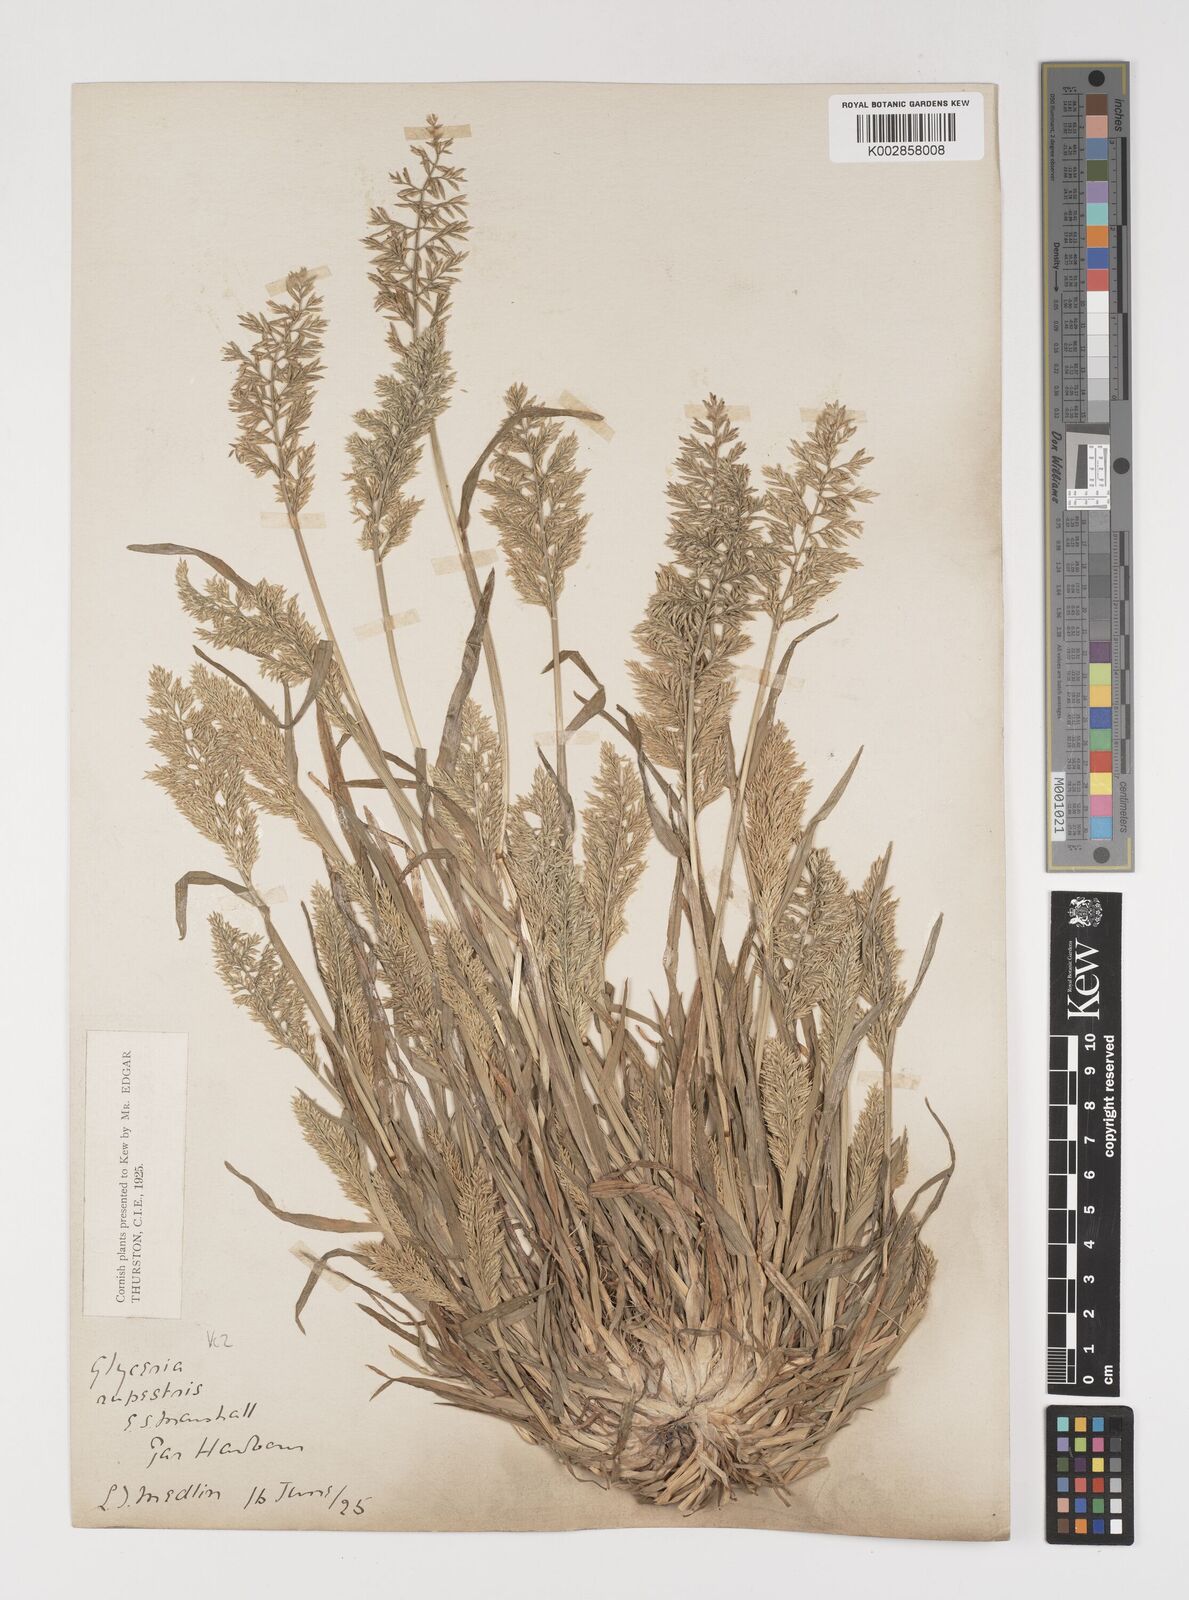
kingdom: Plantae
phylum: Tracheophyta
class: Liliopsida
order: Poales
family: Poaceae
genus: Puccinellia
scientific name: Puccinellia rupestris
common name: Stiff saltmarsh-grass
